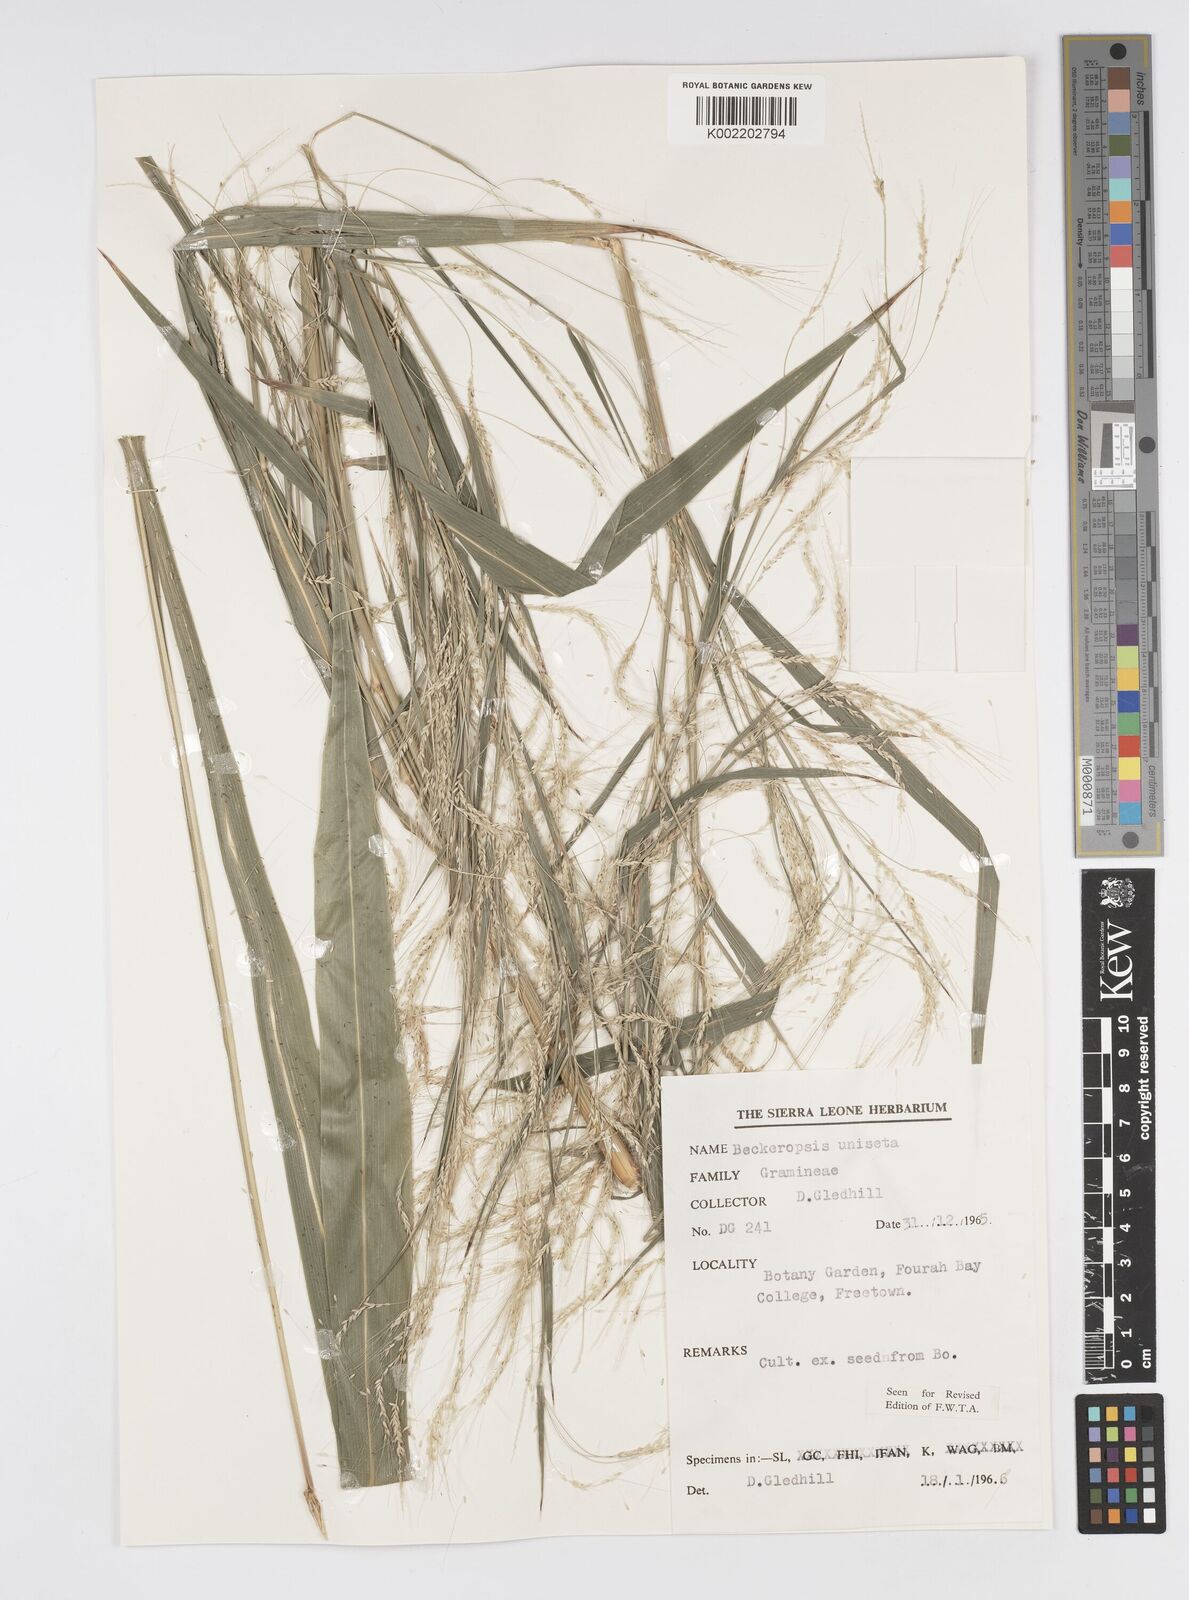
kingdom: Plantae
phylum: Tracheophyta
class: Liliopsida
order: Poales
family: Poaceae
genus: Cenchrus
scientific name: Cenchrus unisetus
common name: Natal grass
